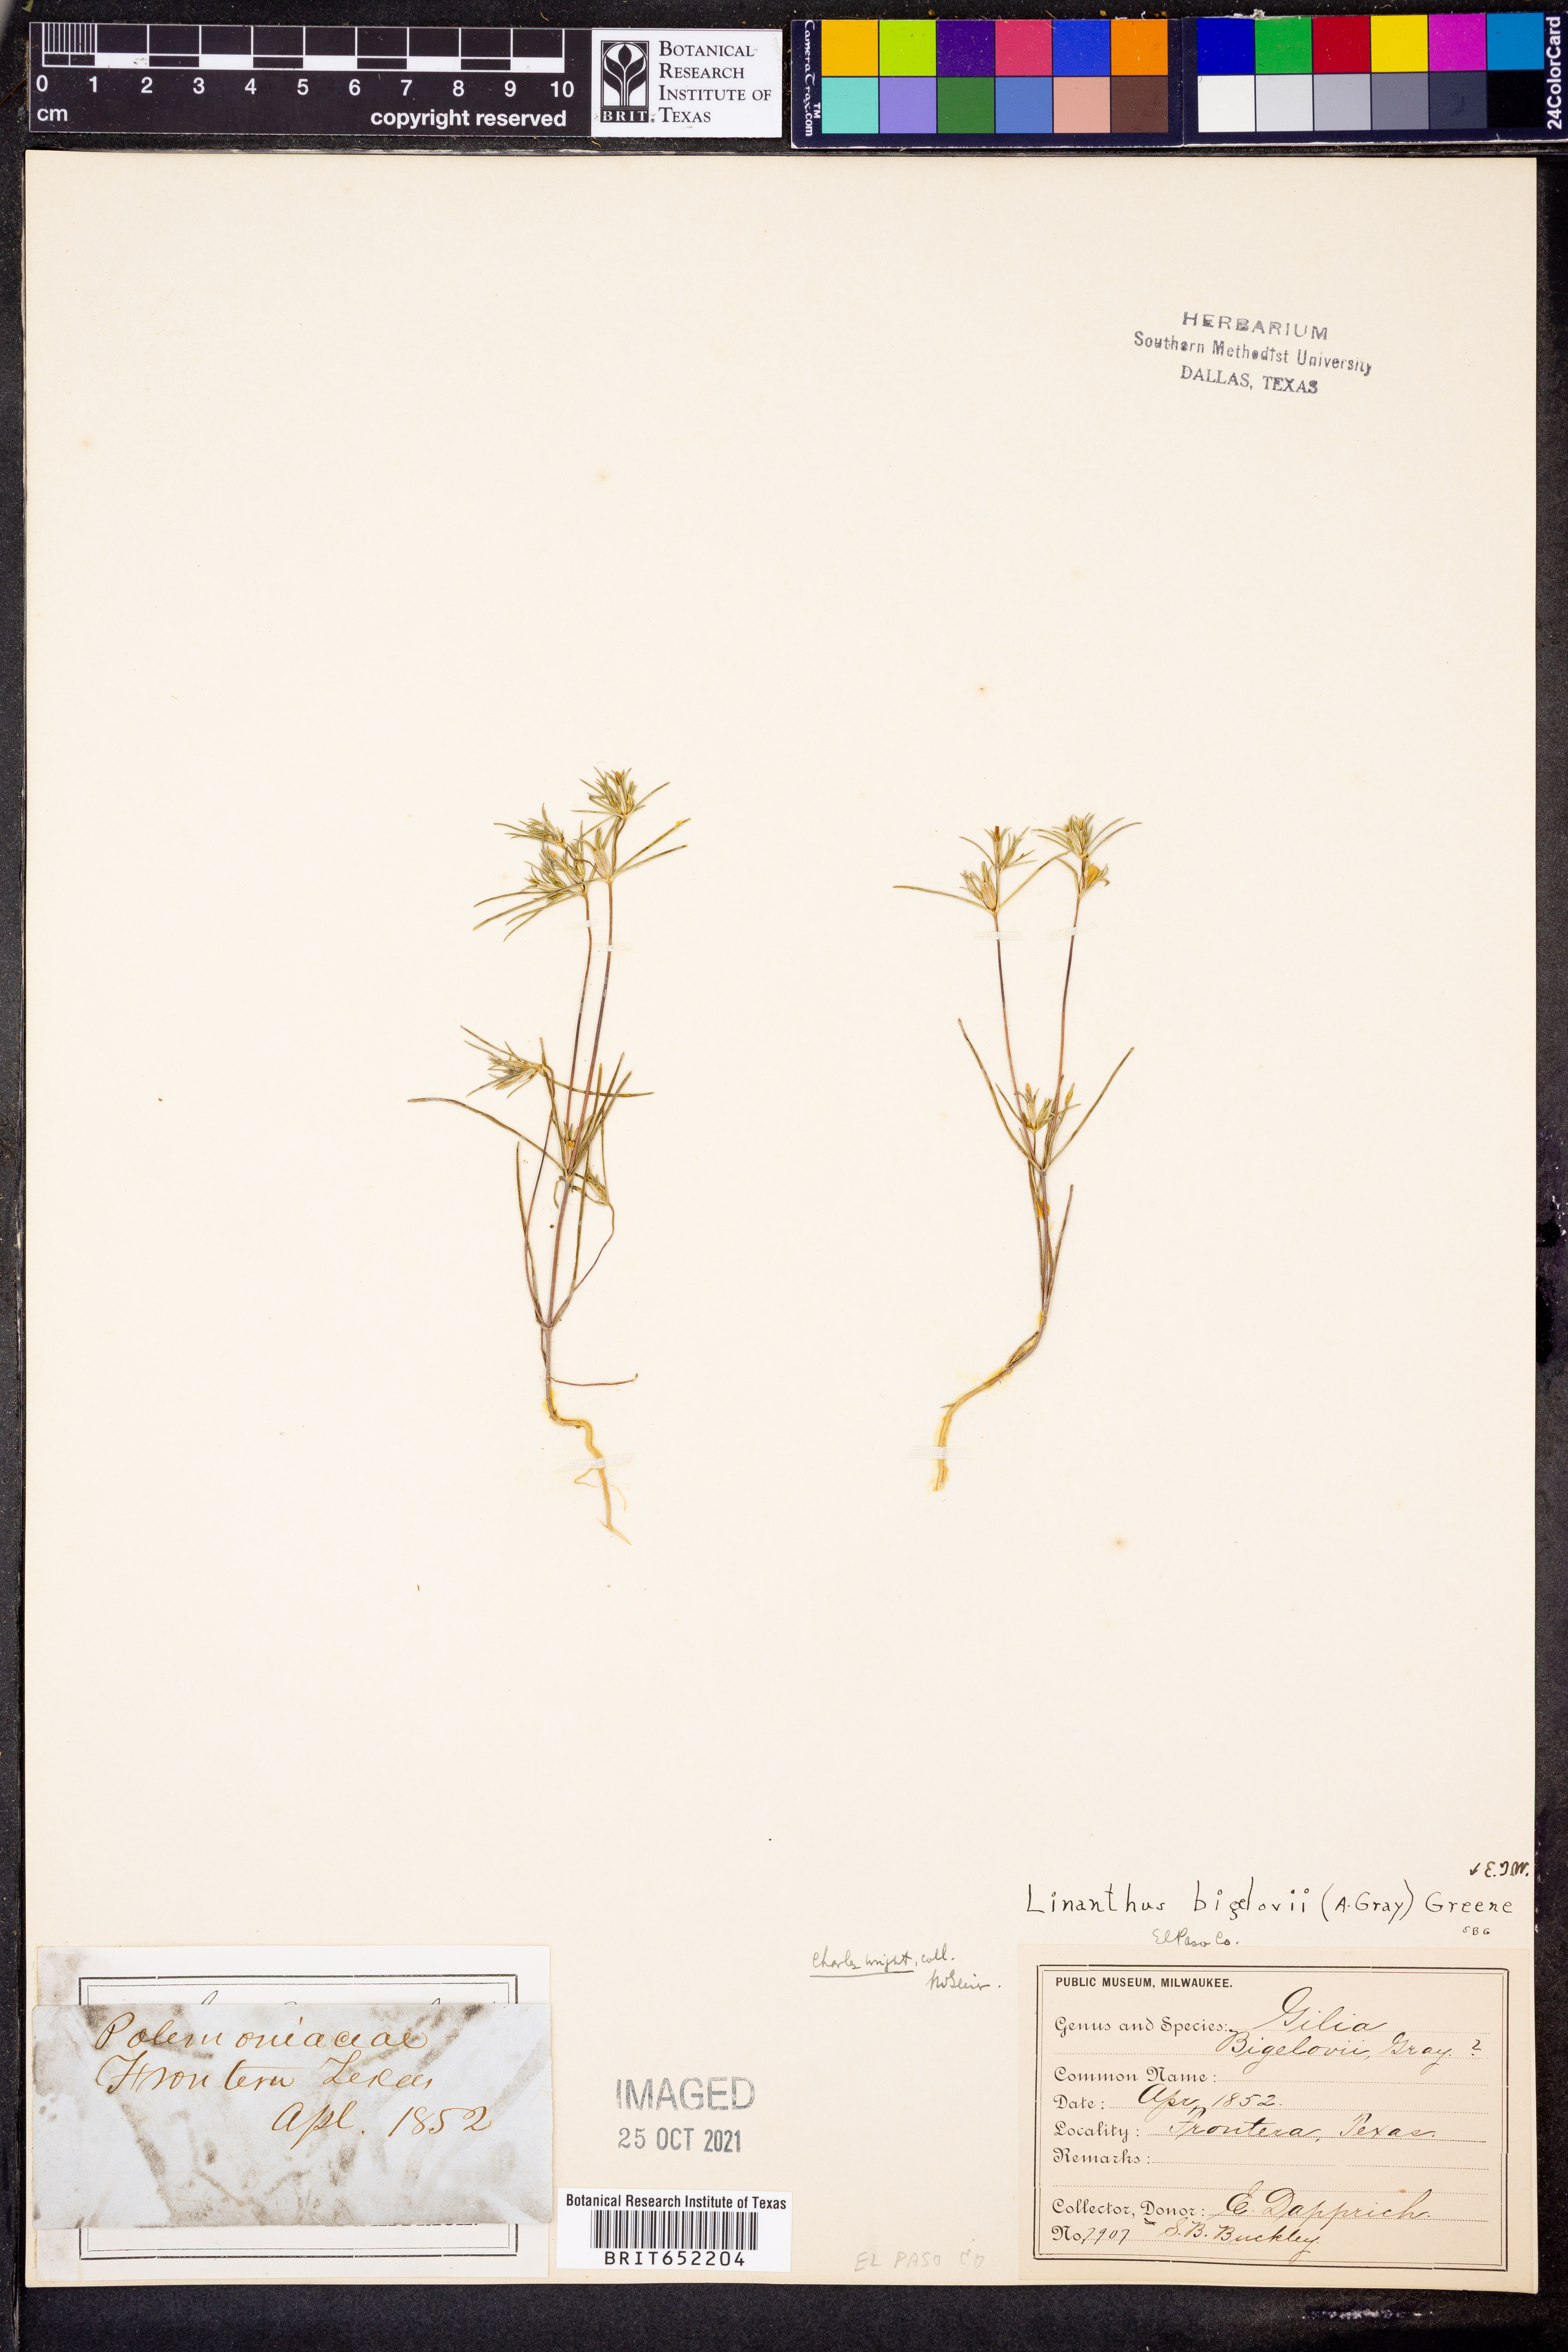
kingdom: Plantae
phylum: Tracheophyta
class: Magnoliopsida
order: Ericales
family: Polemoniaceae
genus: Linanthus
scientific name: Linanthus bigelovii
